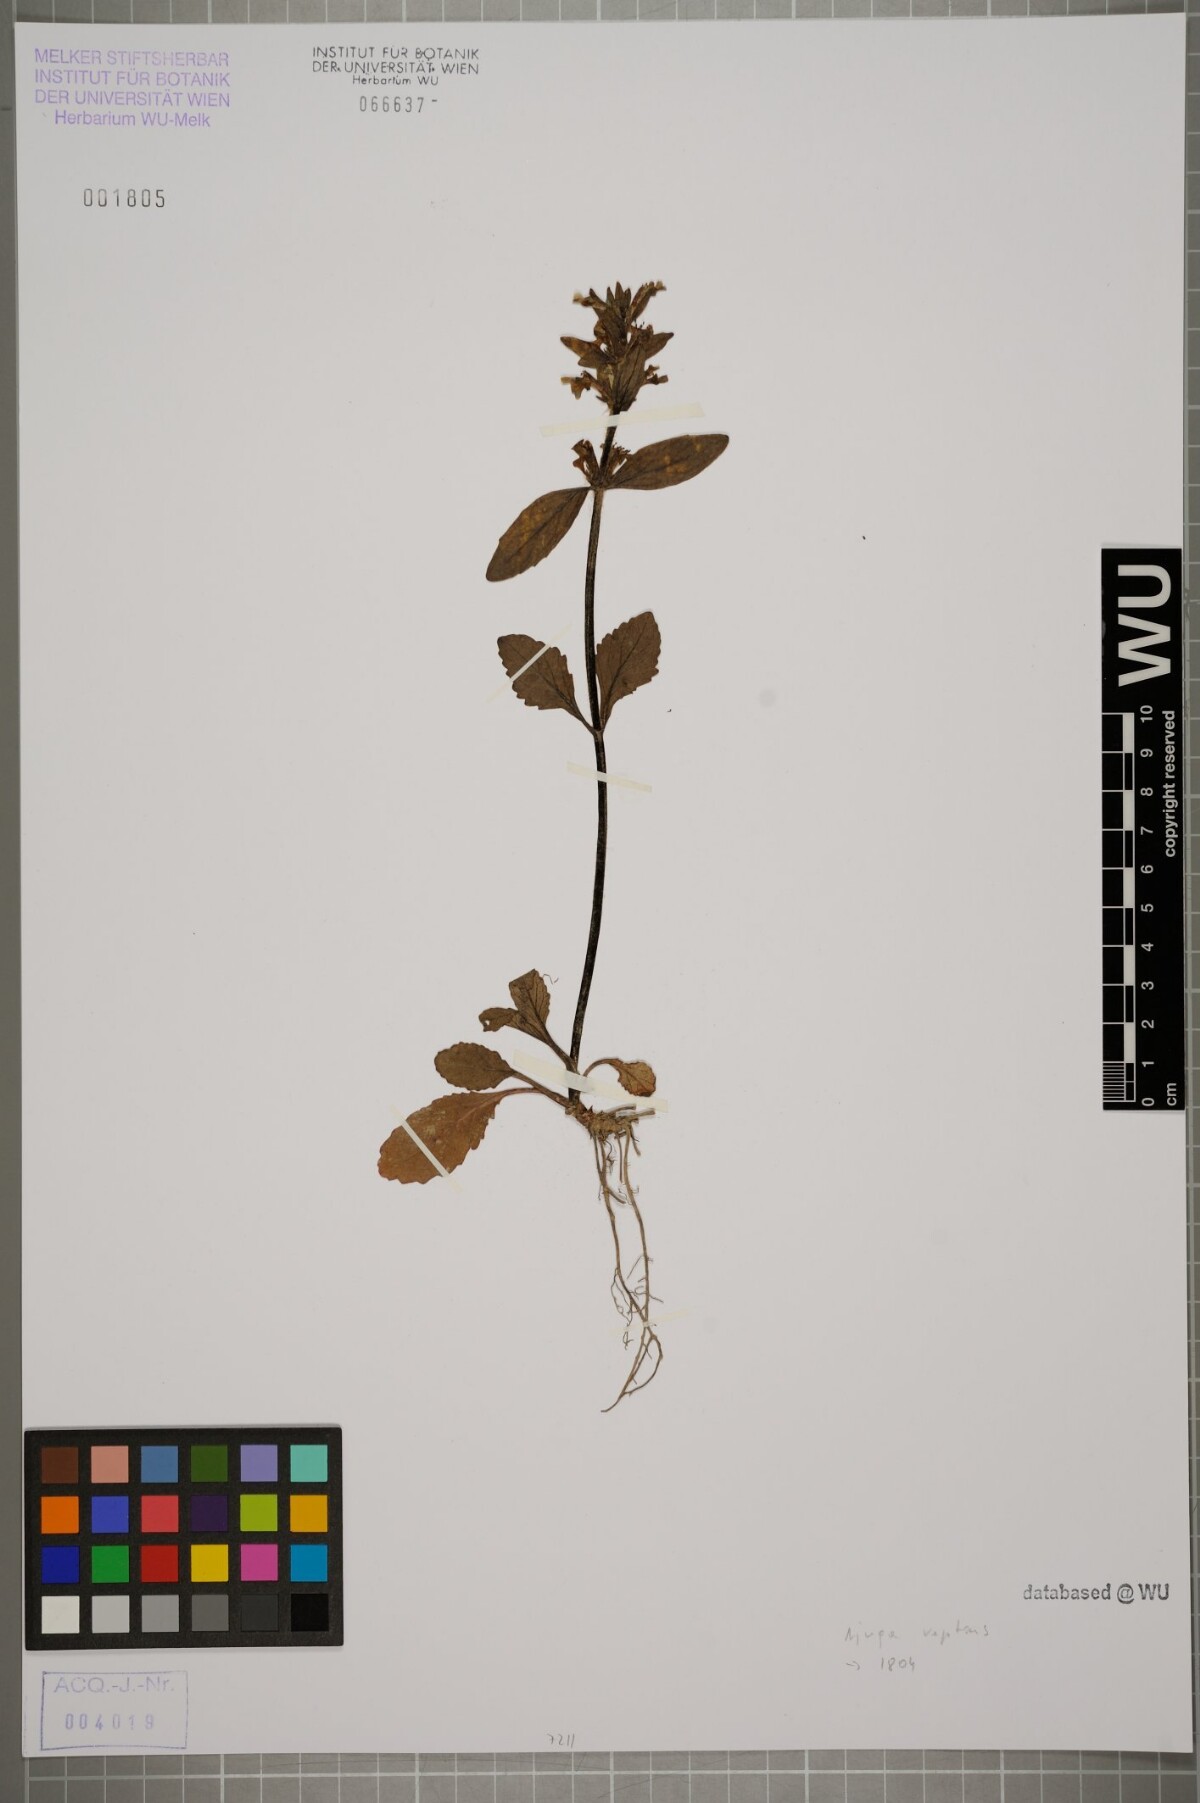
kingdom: Plantae
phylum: Tracheophyta
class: Magnoliopsida
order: Lamiales
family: Lamiaceae
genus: Ajuga
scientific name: Ajuga reptans
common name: Bugle
